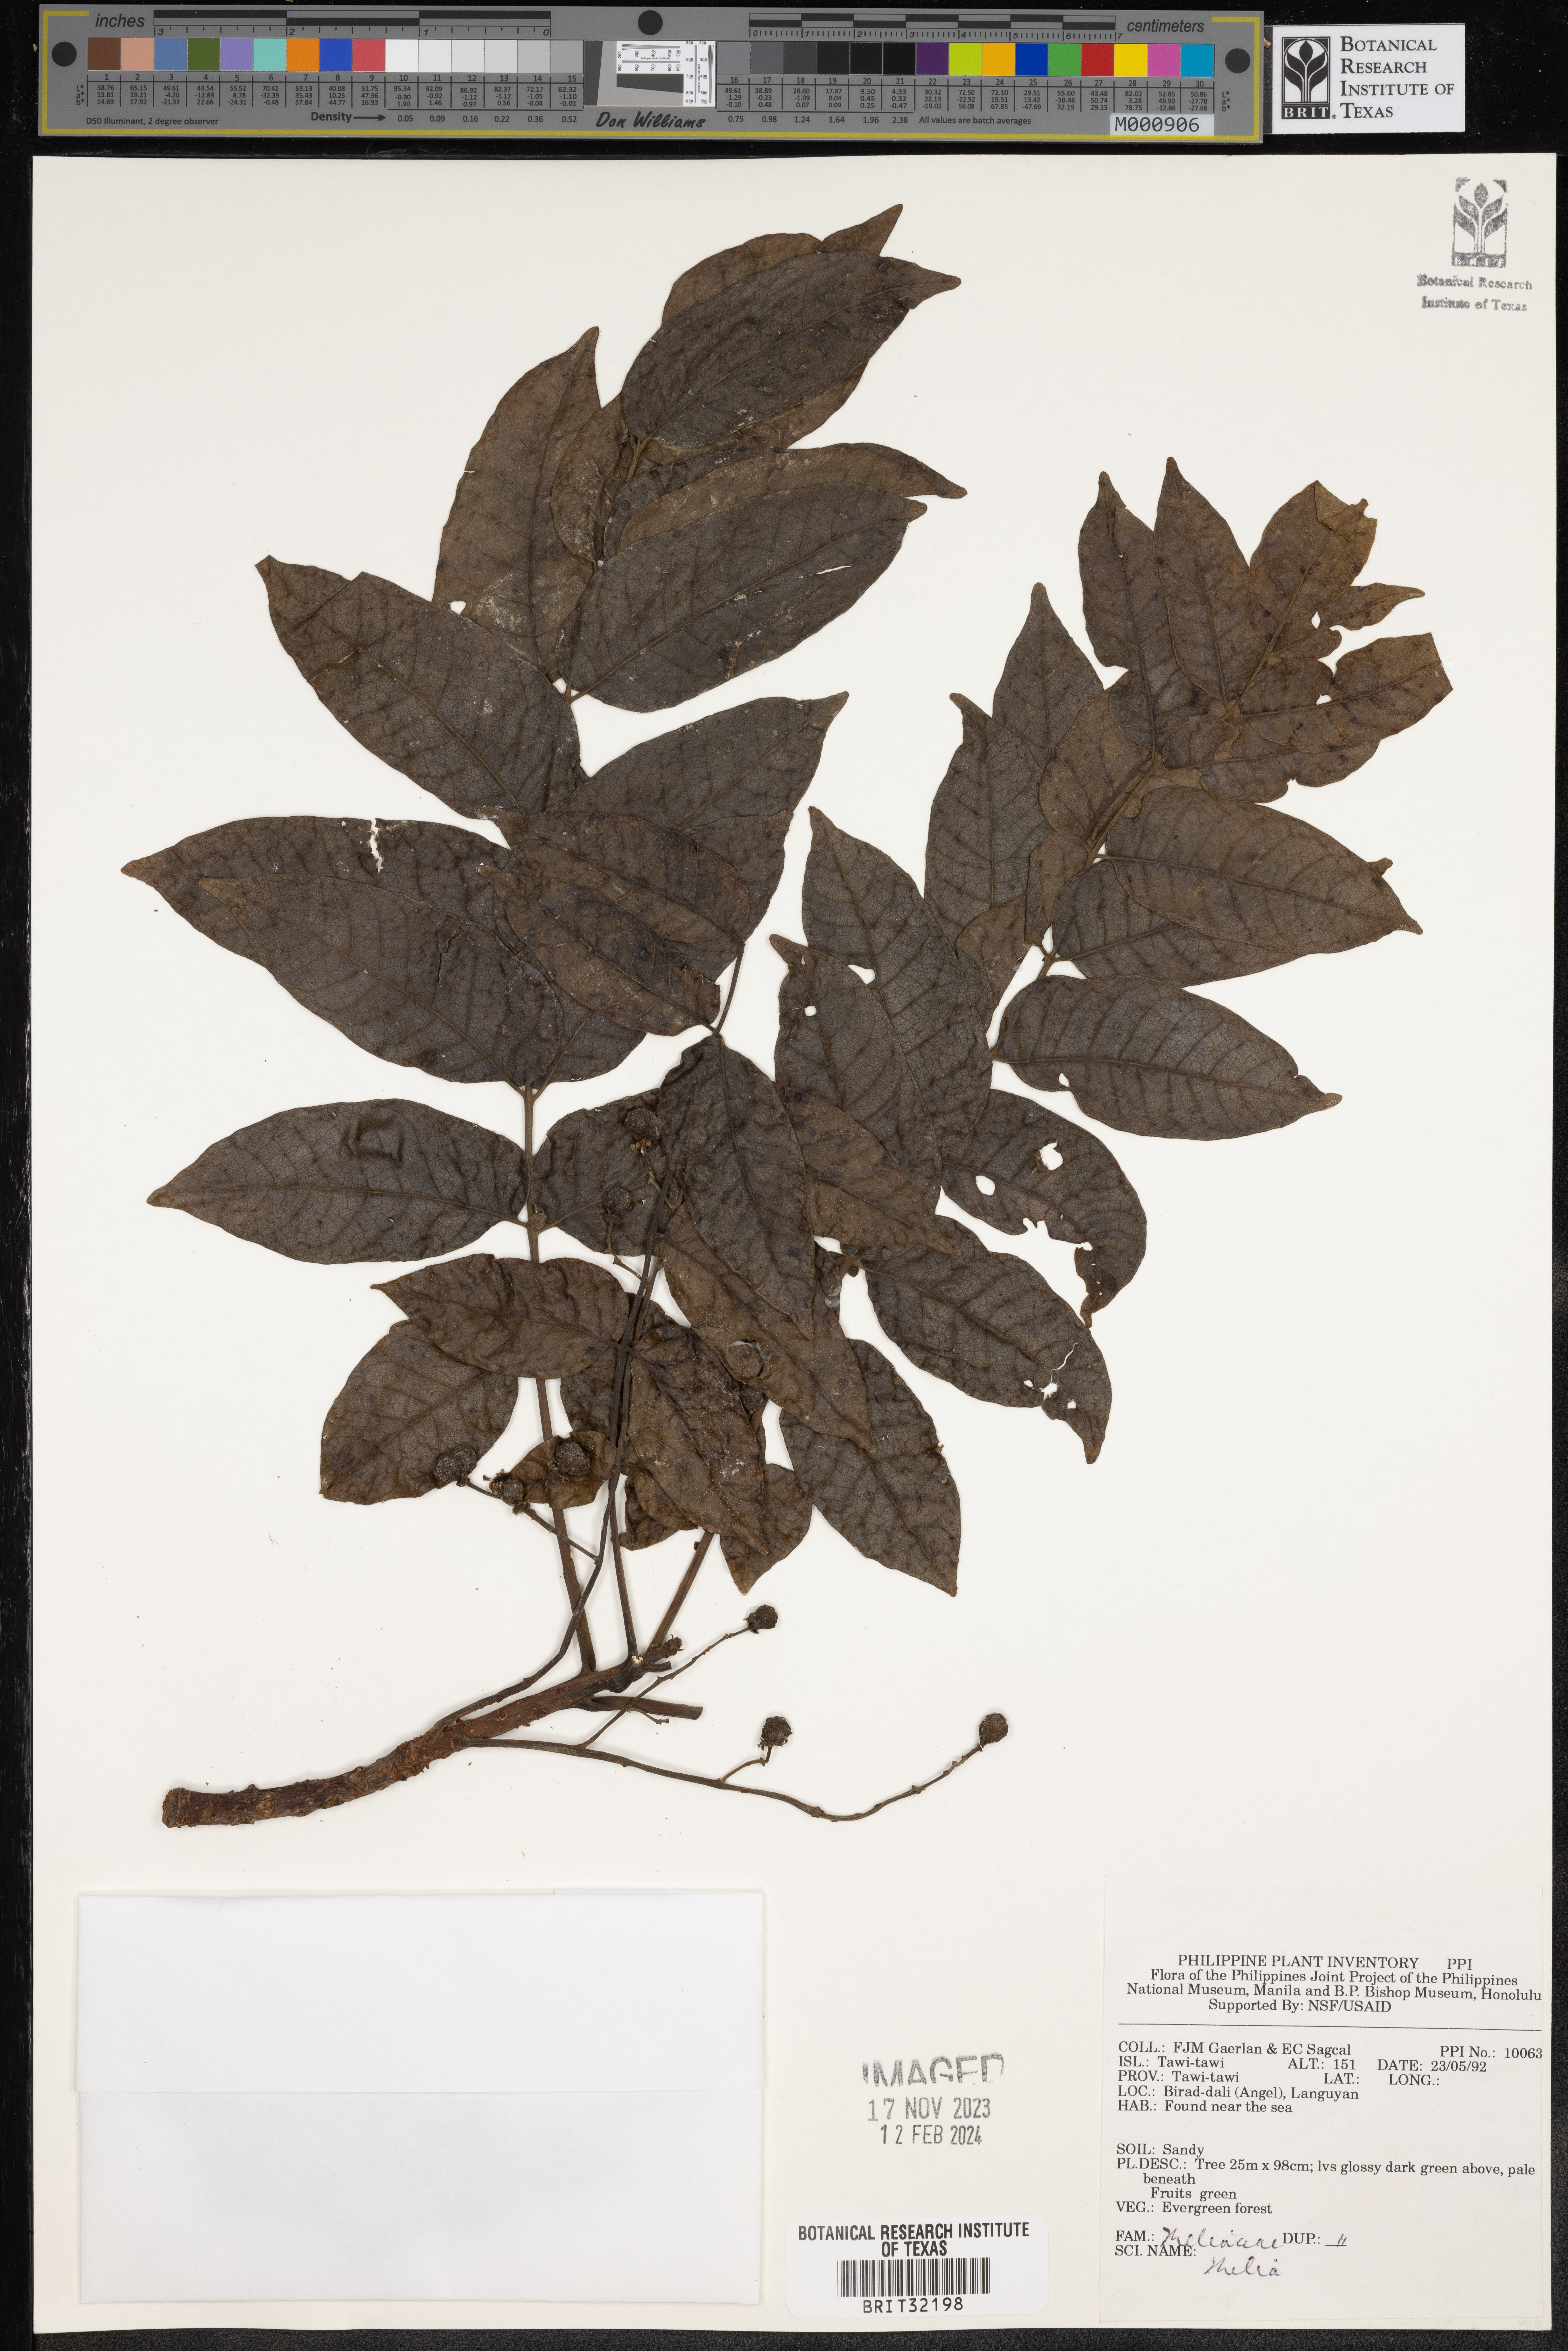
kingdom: Plantae
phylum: Tracheophyta
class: Magnoliopsida
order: Sapindales
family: Meliaceae
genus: Melia
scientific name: Melia
